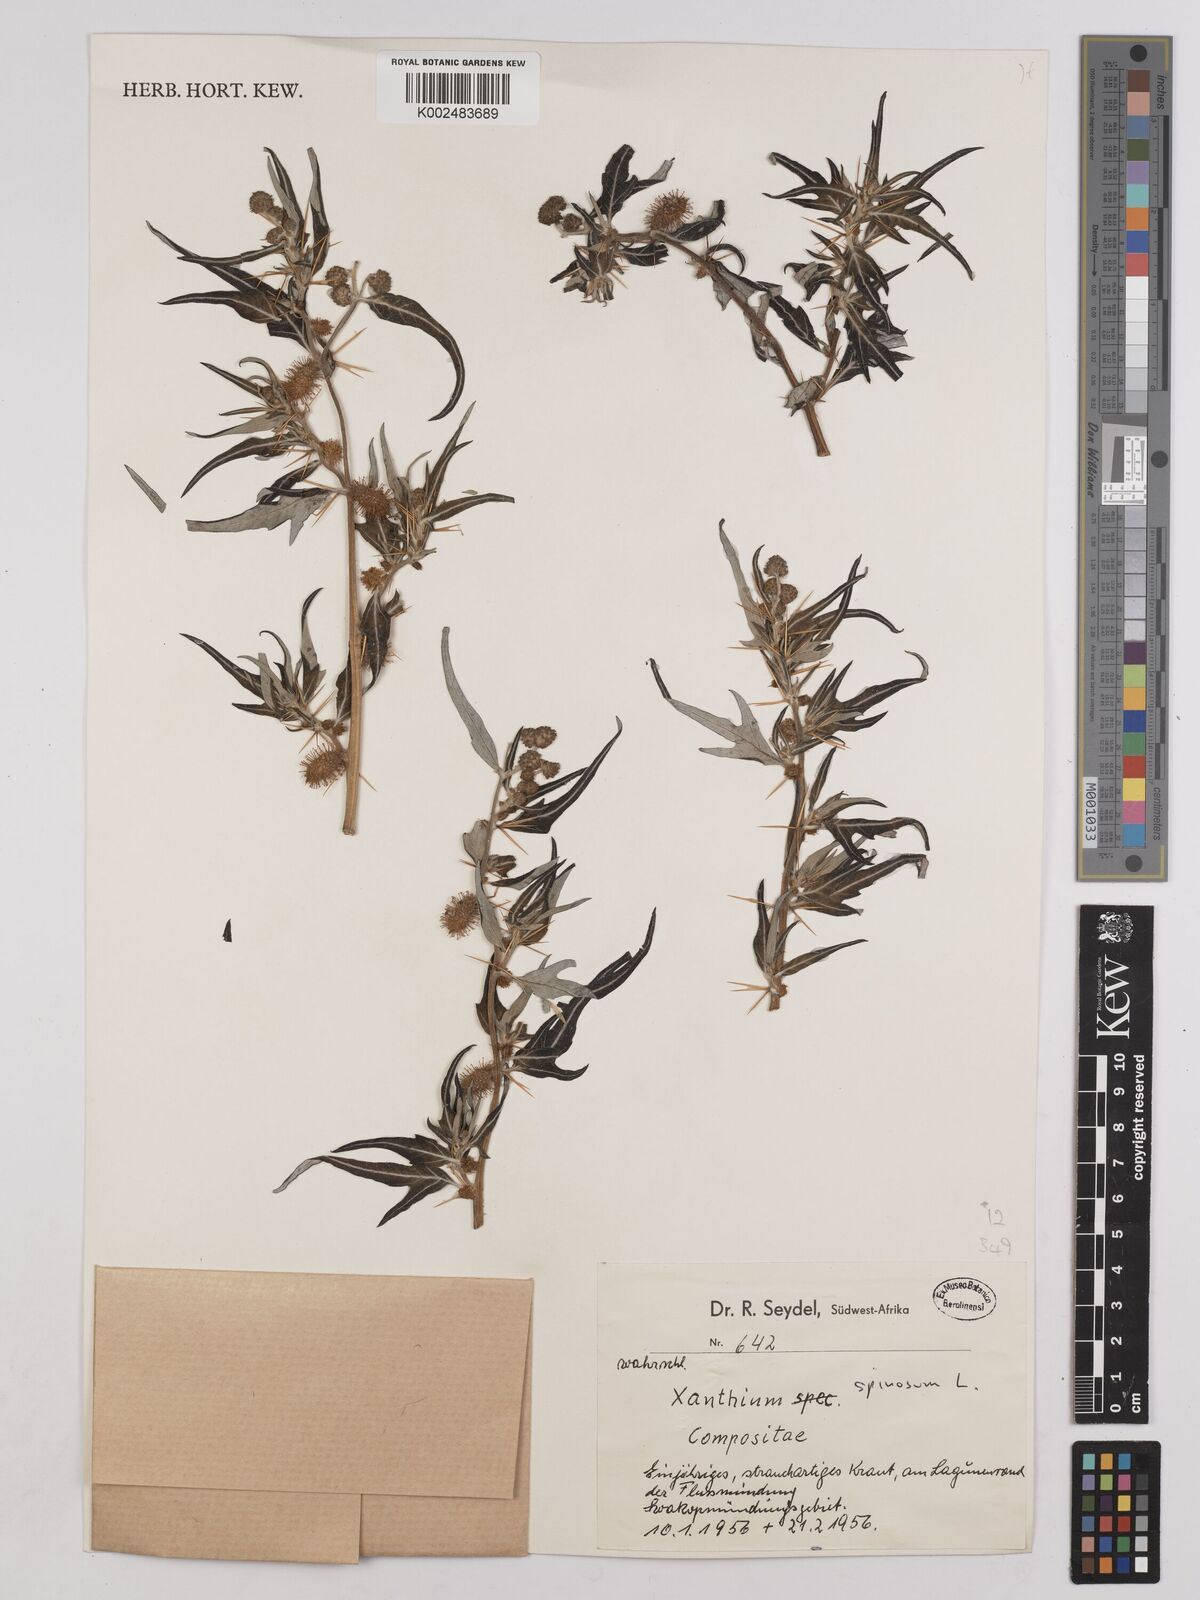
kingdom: Plantae
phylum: Tracheophyta
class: Magnoliopsida
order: Asterales
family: Asteraceae
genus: Xanthium
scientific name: Xanthium spinosum
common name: Spiny cocklebur
